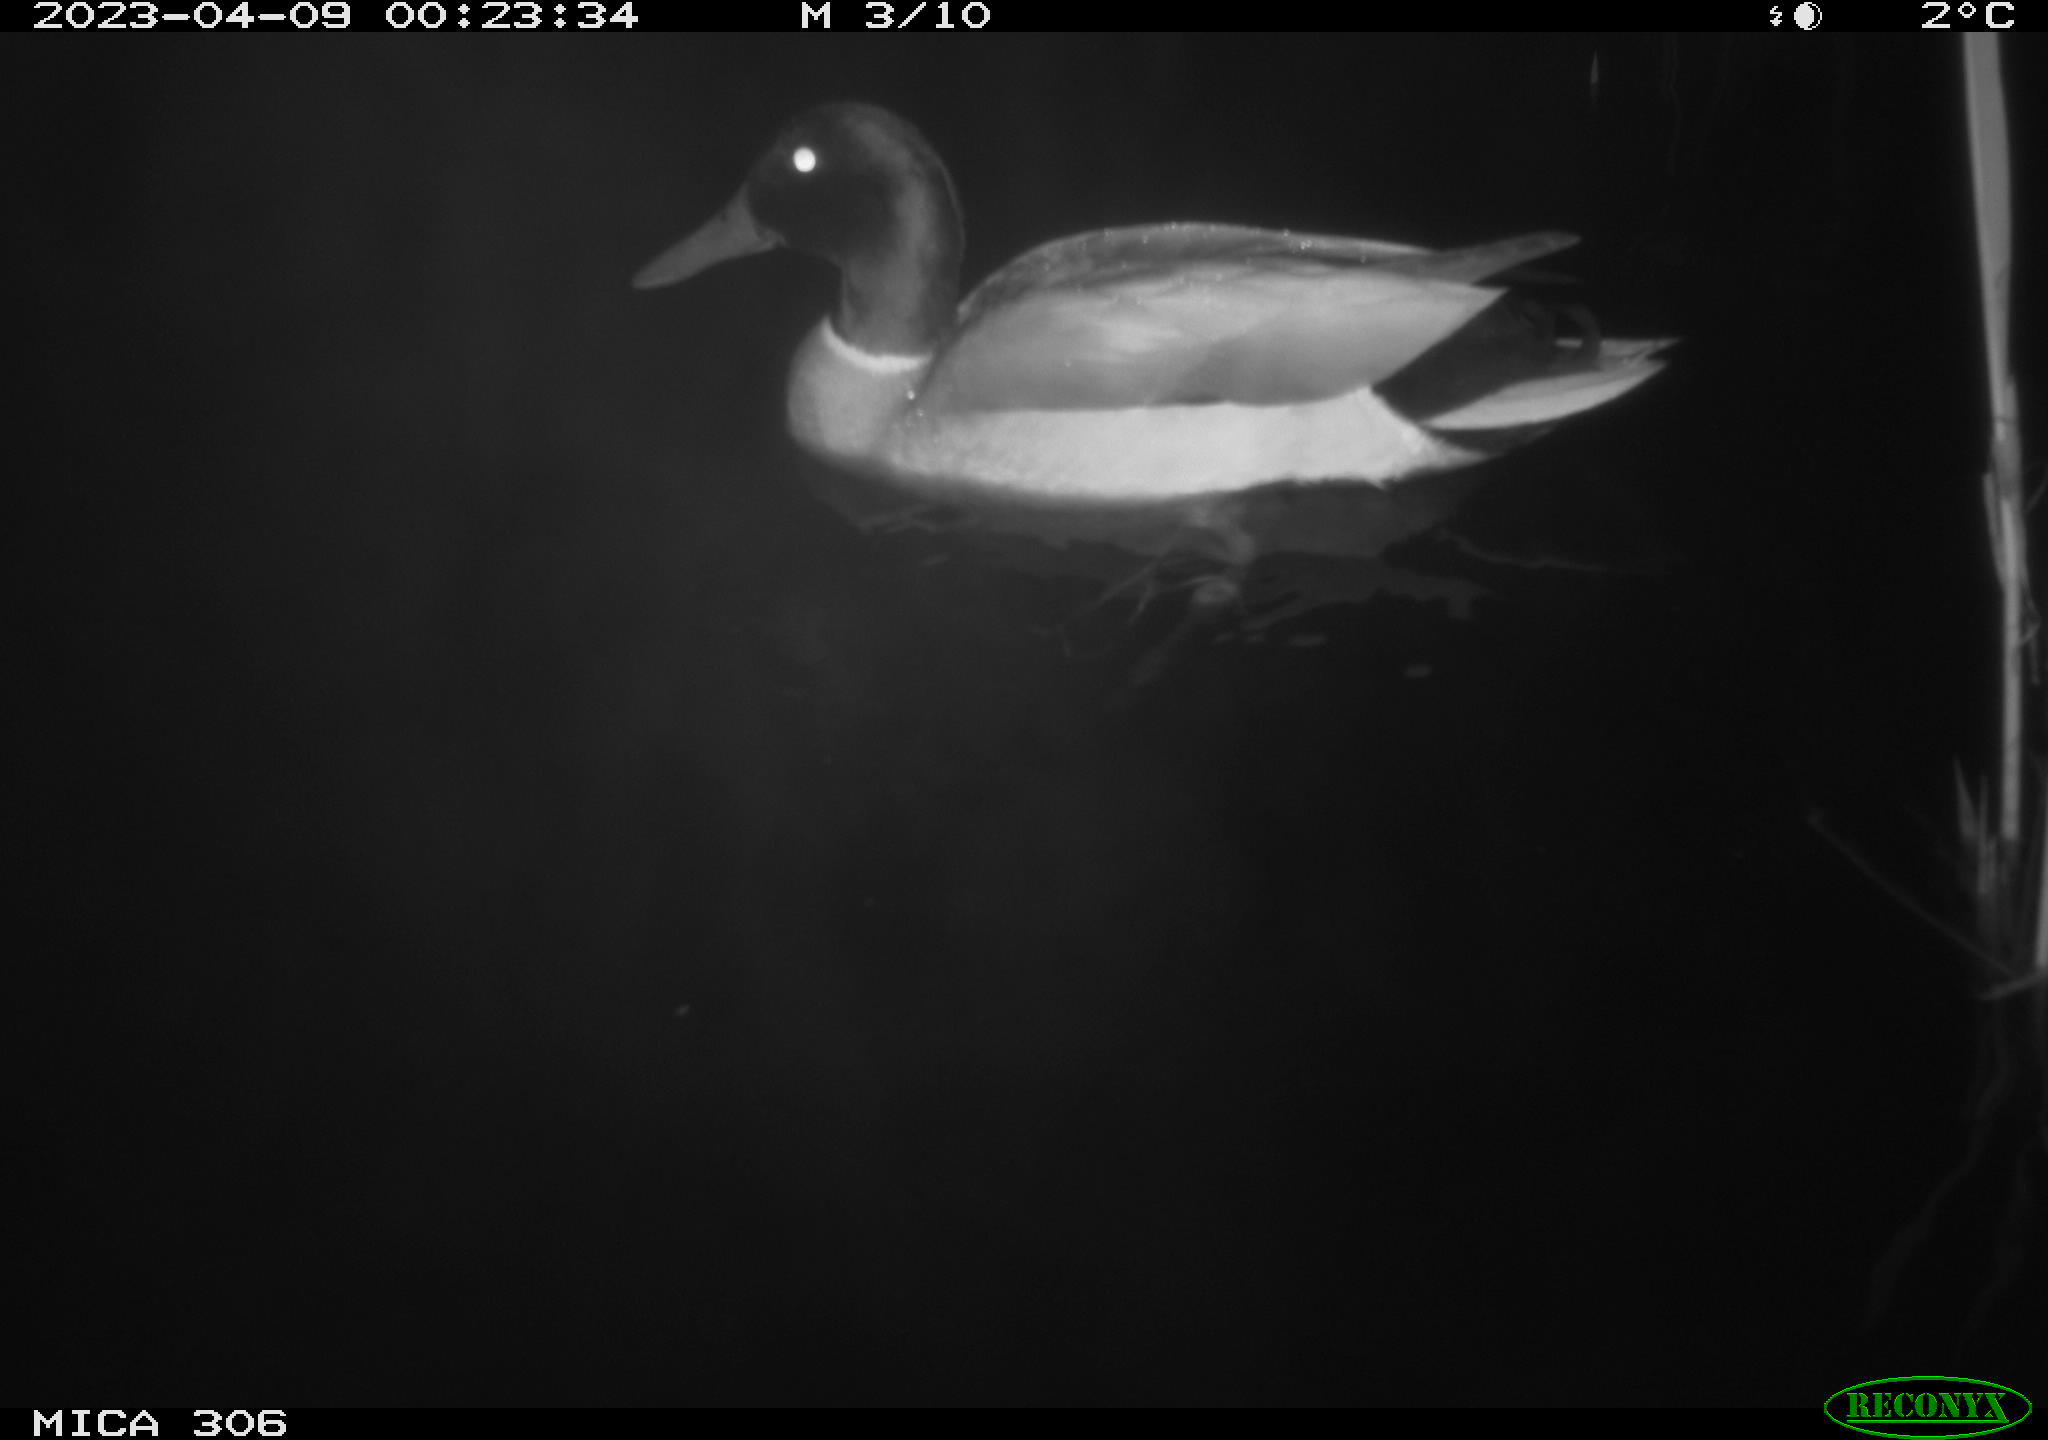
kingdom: Animalia
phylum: Chordata
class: Aves
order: Anseriformes
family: Anatidae
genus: Anas
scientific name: Anas
